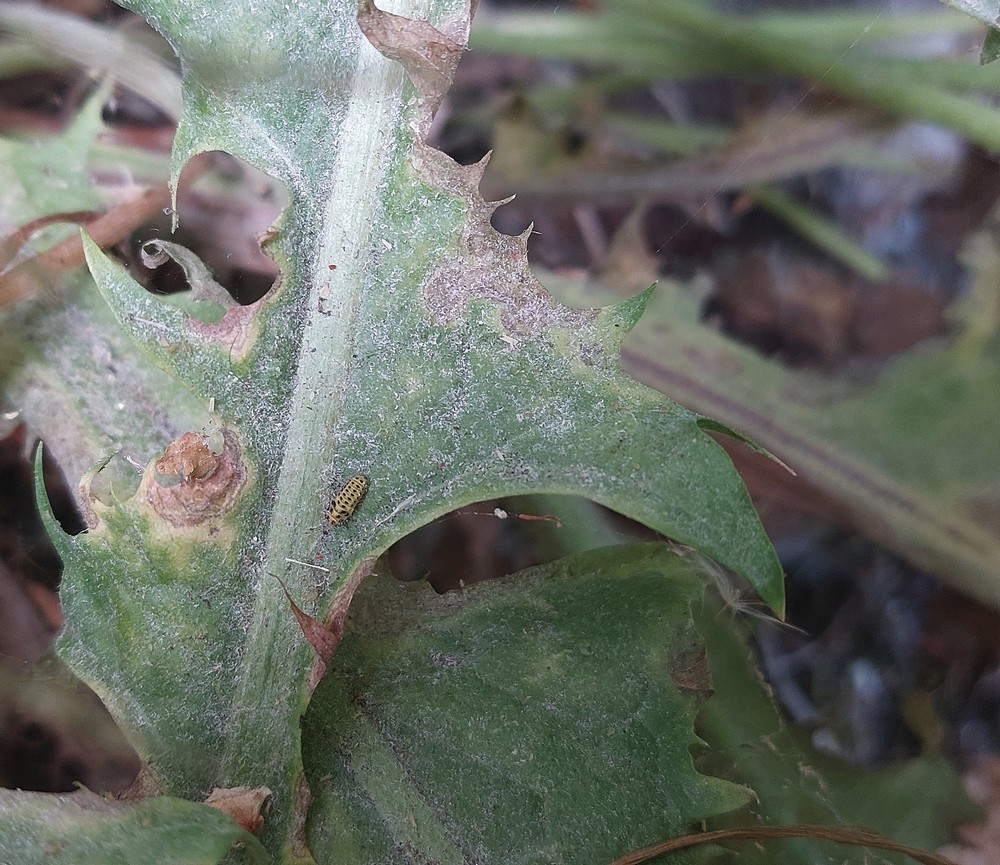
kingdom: Fungi
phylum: Ascomycota
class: Leotiomycetes
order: Helotiales
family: Erysiphaceae
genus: Podosphaera
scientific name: Podosphaera erigerontis-canadensis
